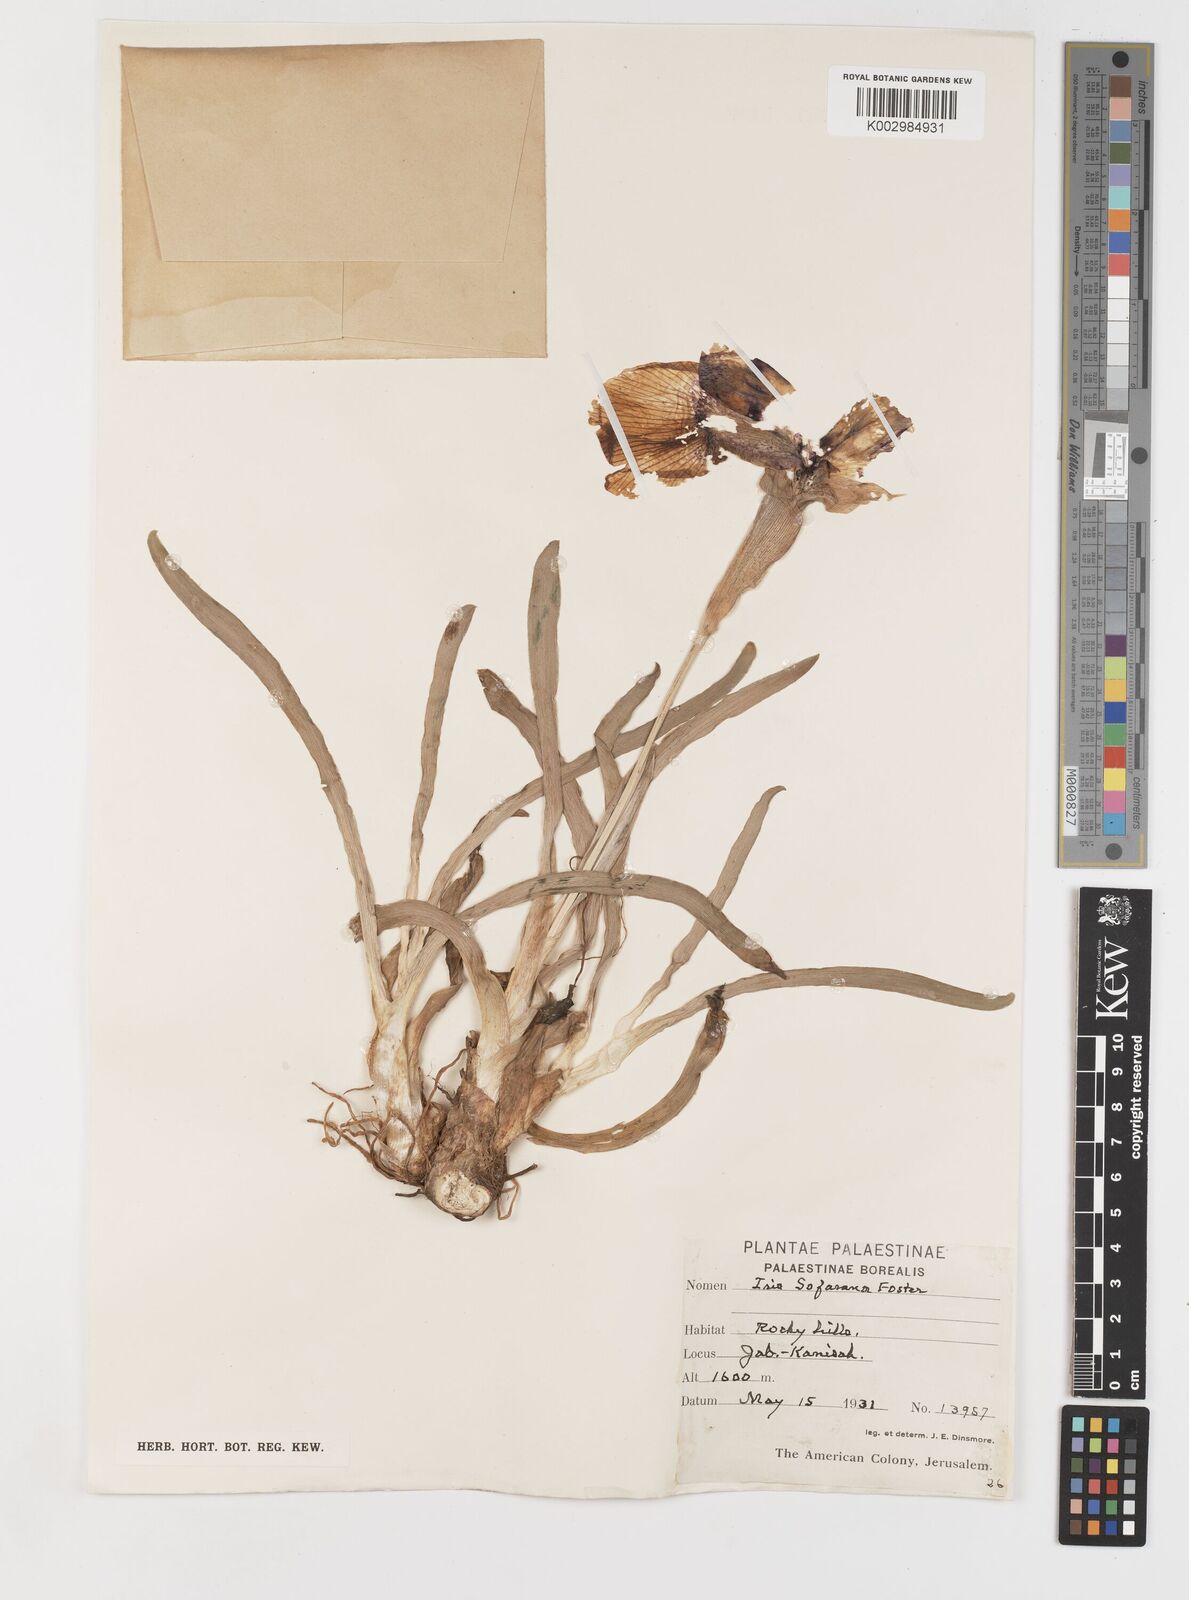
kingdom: Plantae
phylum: Tracheophyta
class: Liliopsida
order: Asparagales
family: Iridaceae
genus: Iris
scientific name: Iris
